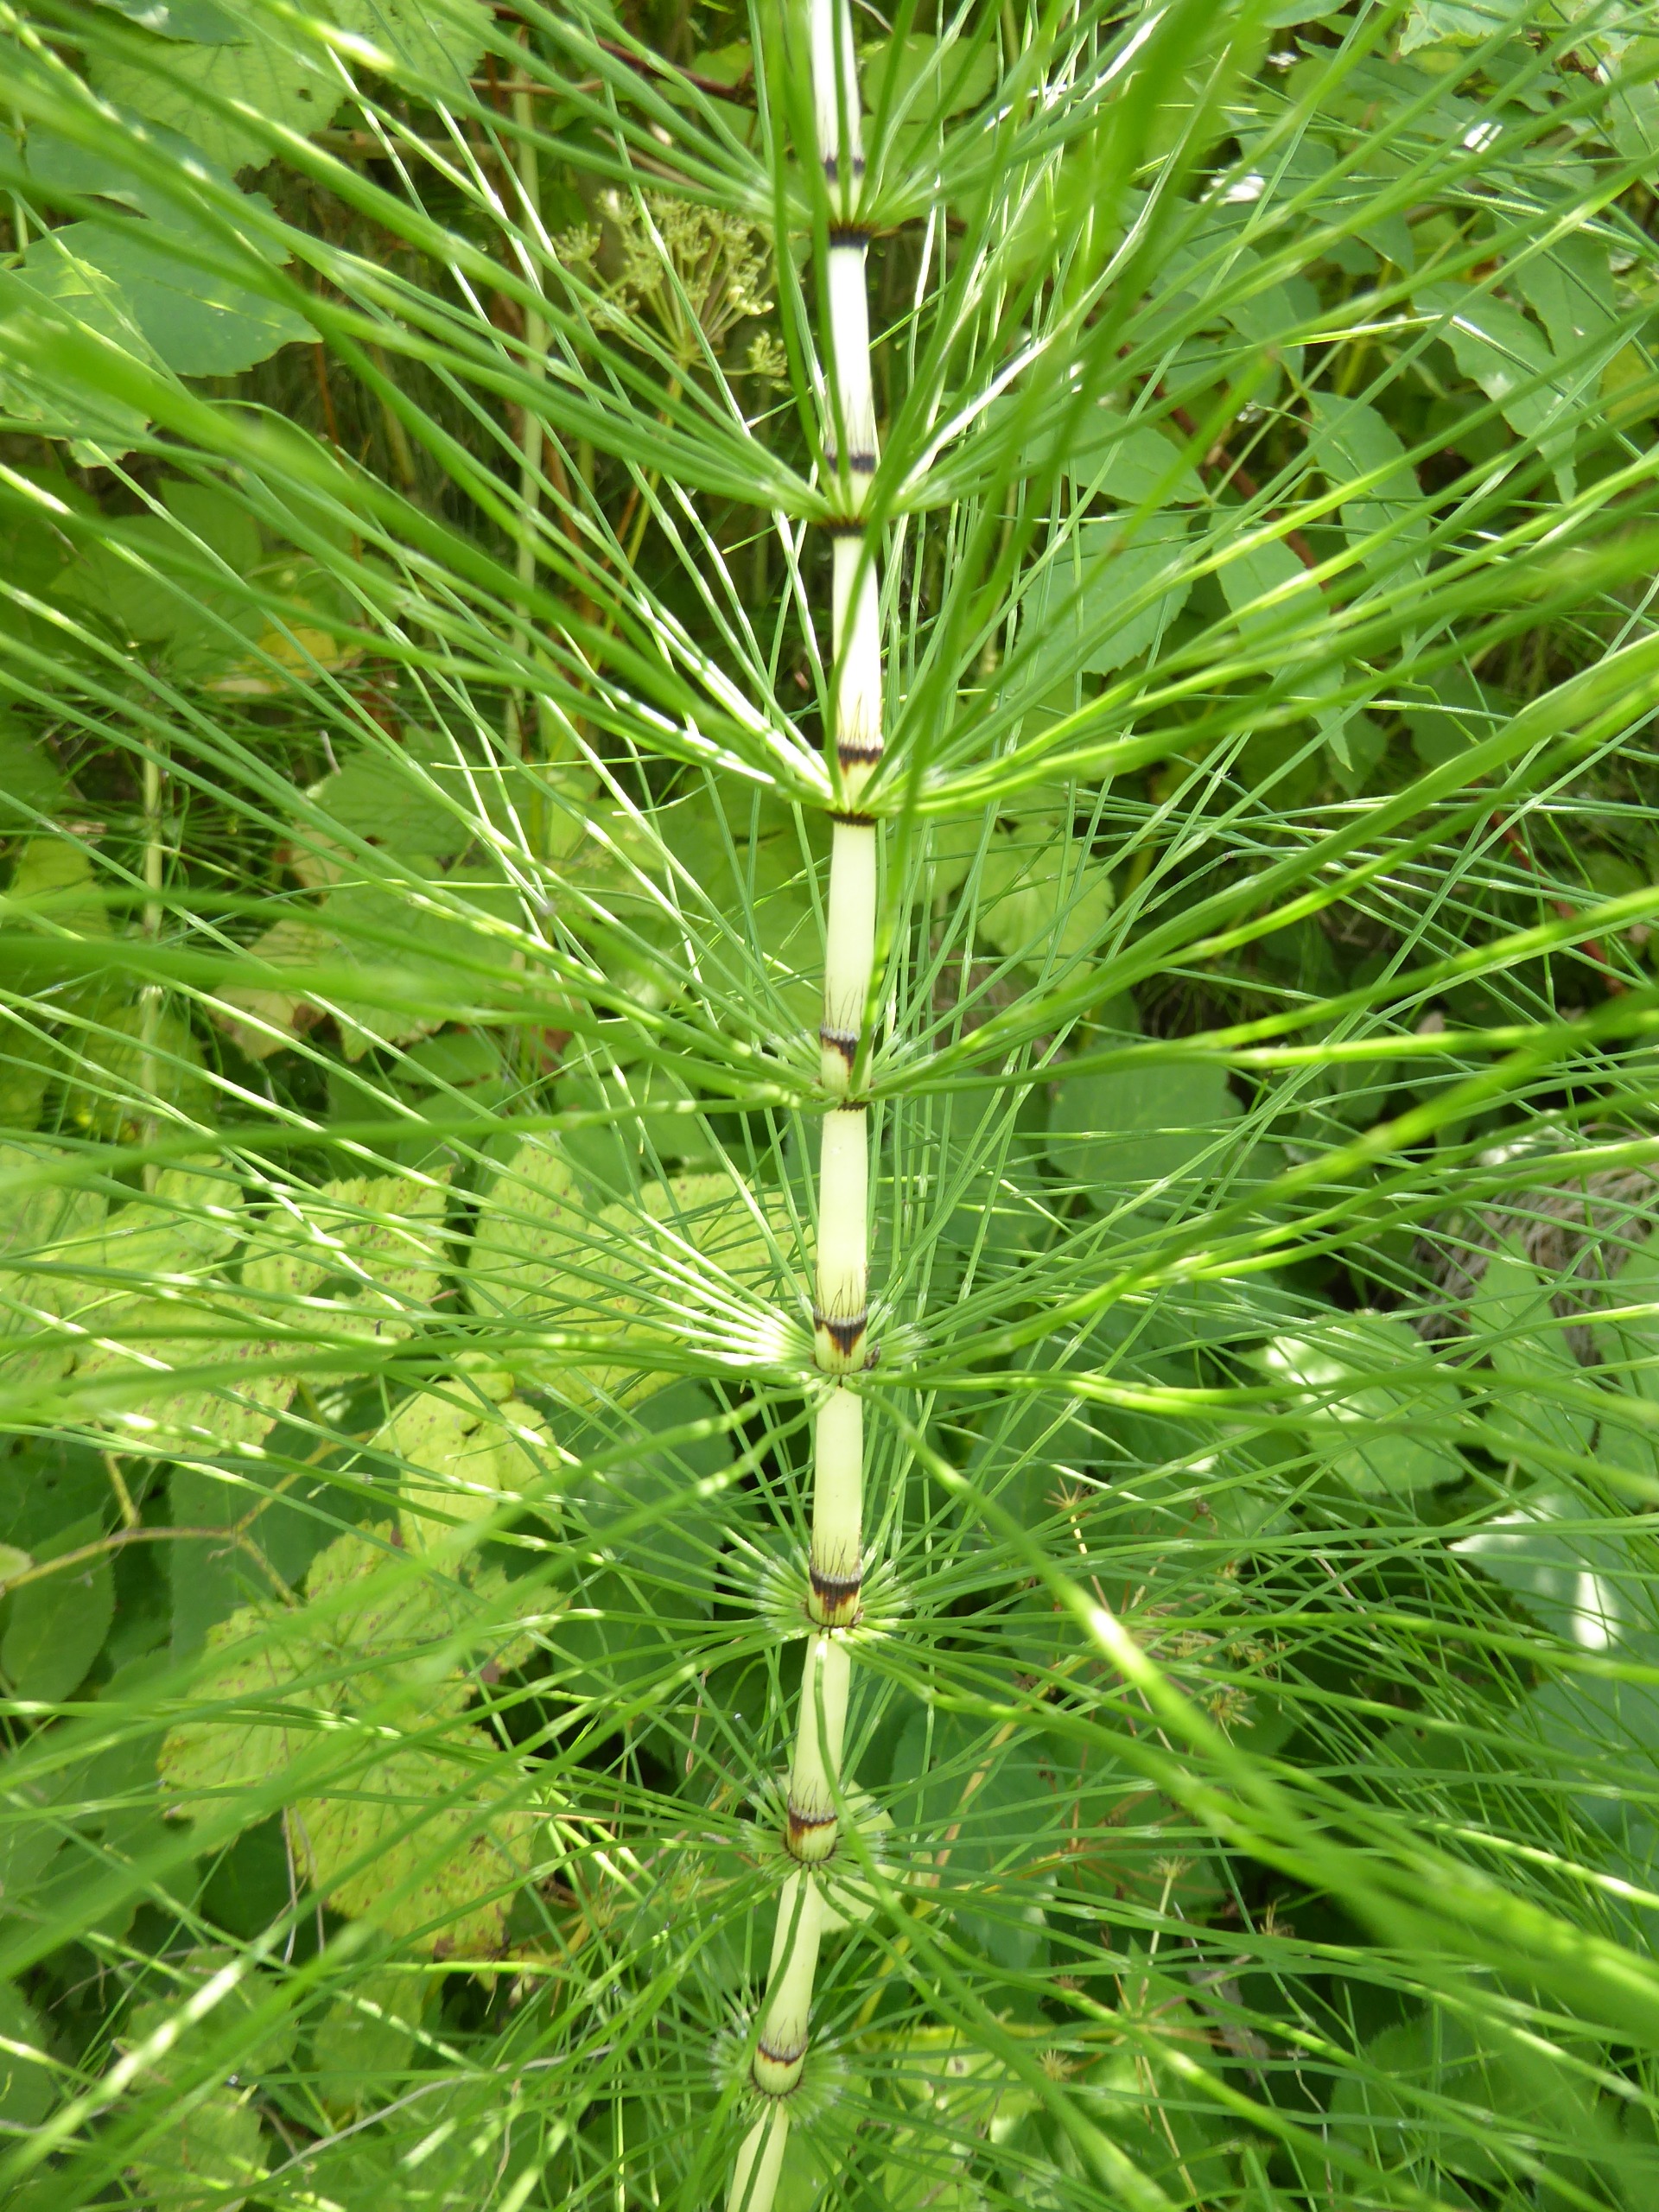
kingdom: Plantae
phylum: Tracheophyta
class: Polypodiopsida
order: Equisetales
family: Equisetaceae
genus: Equisetum
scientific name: Equisetum telmateia
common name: Elfenbens-padderok
